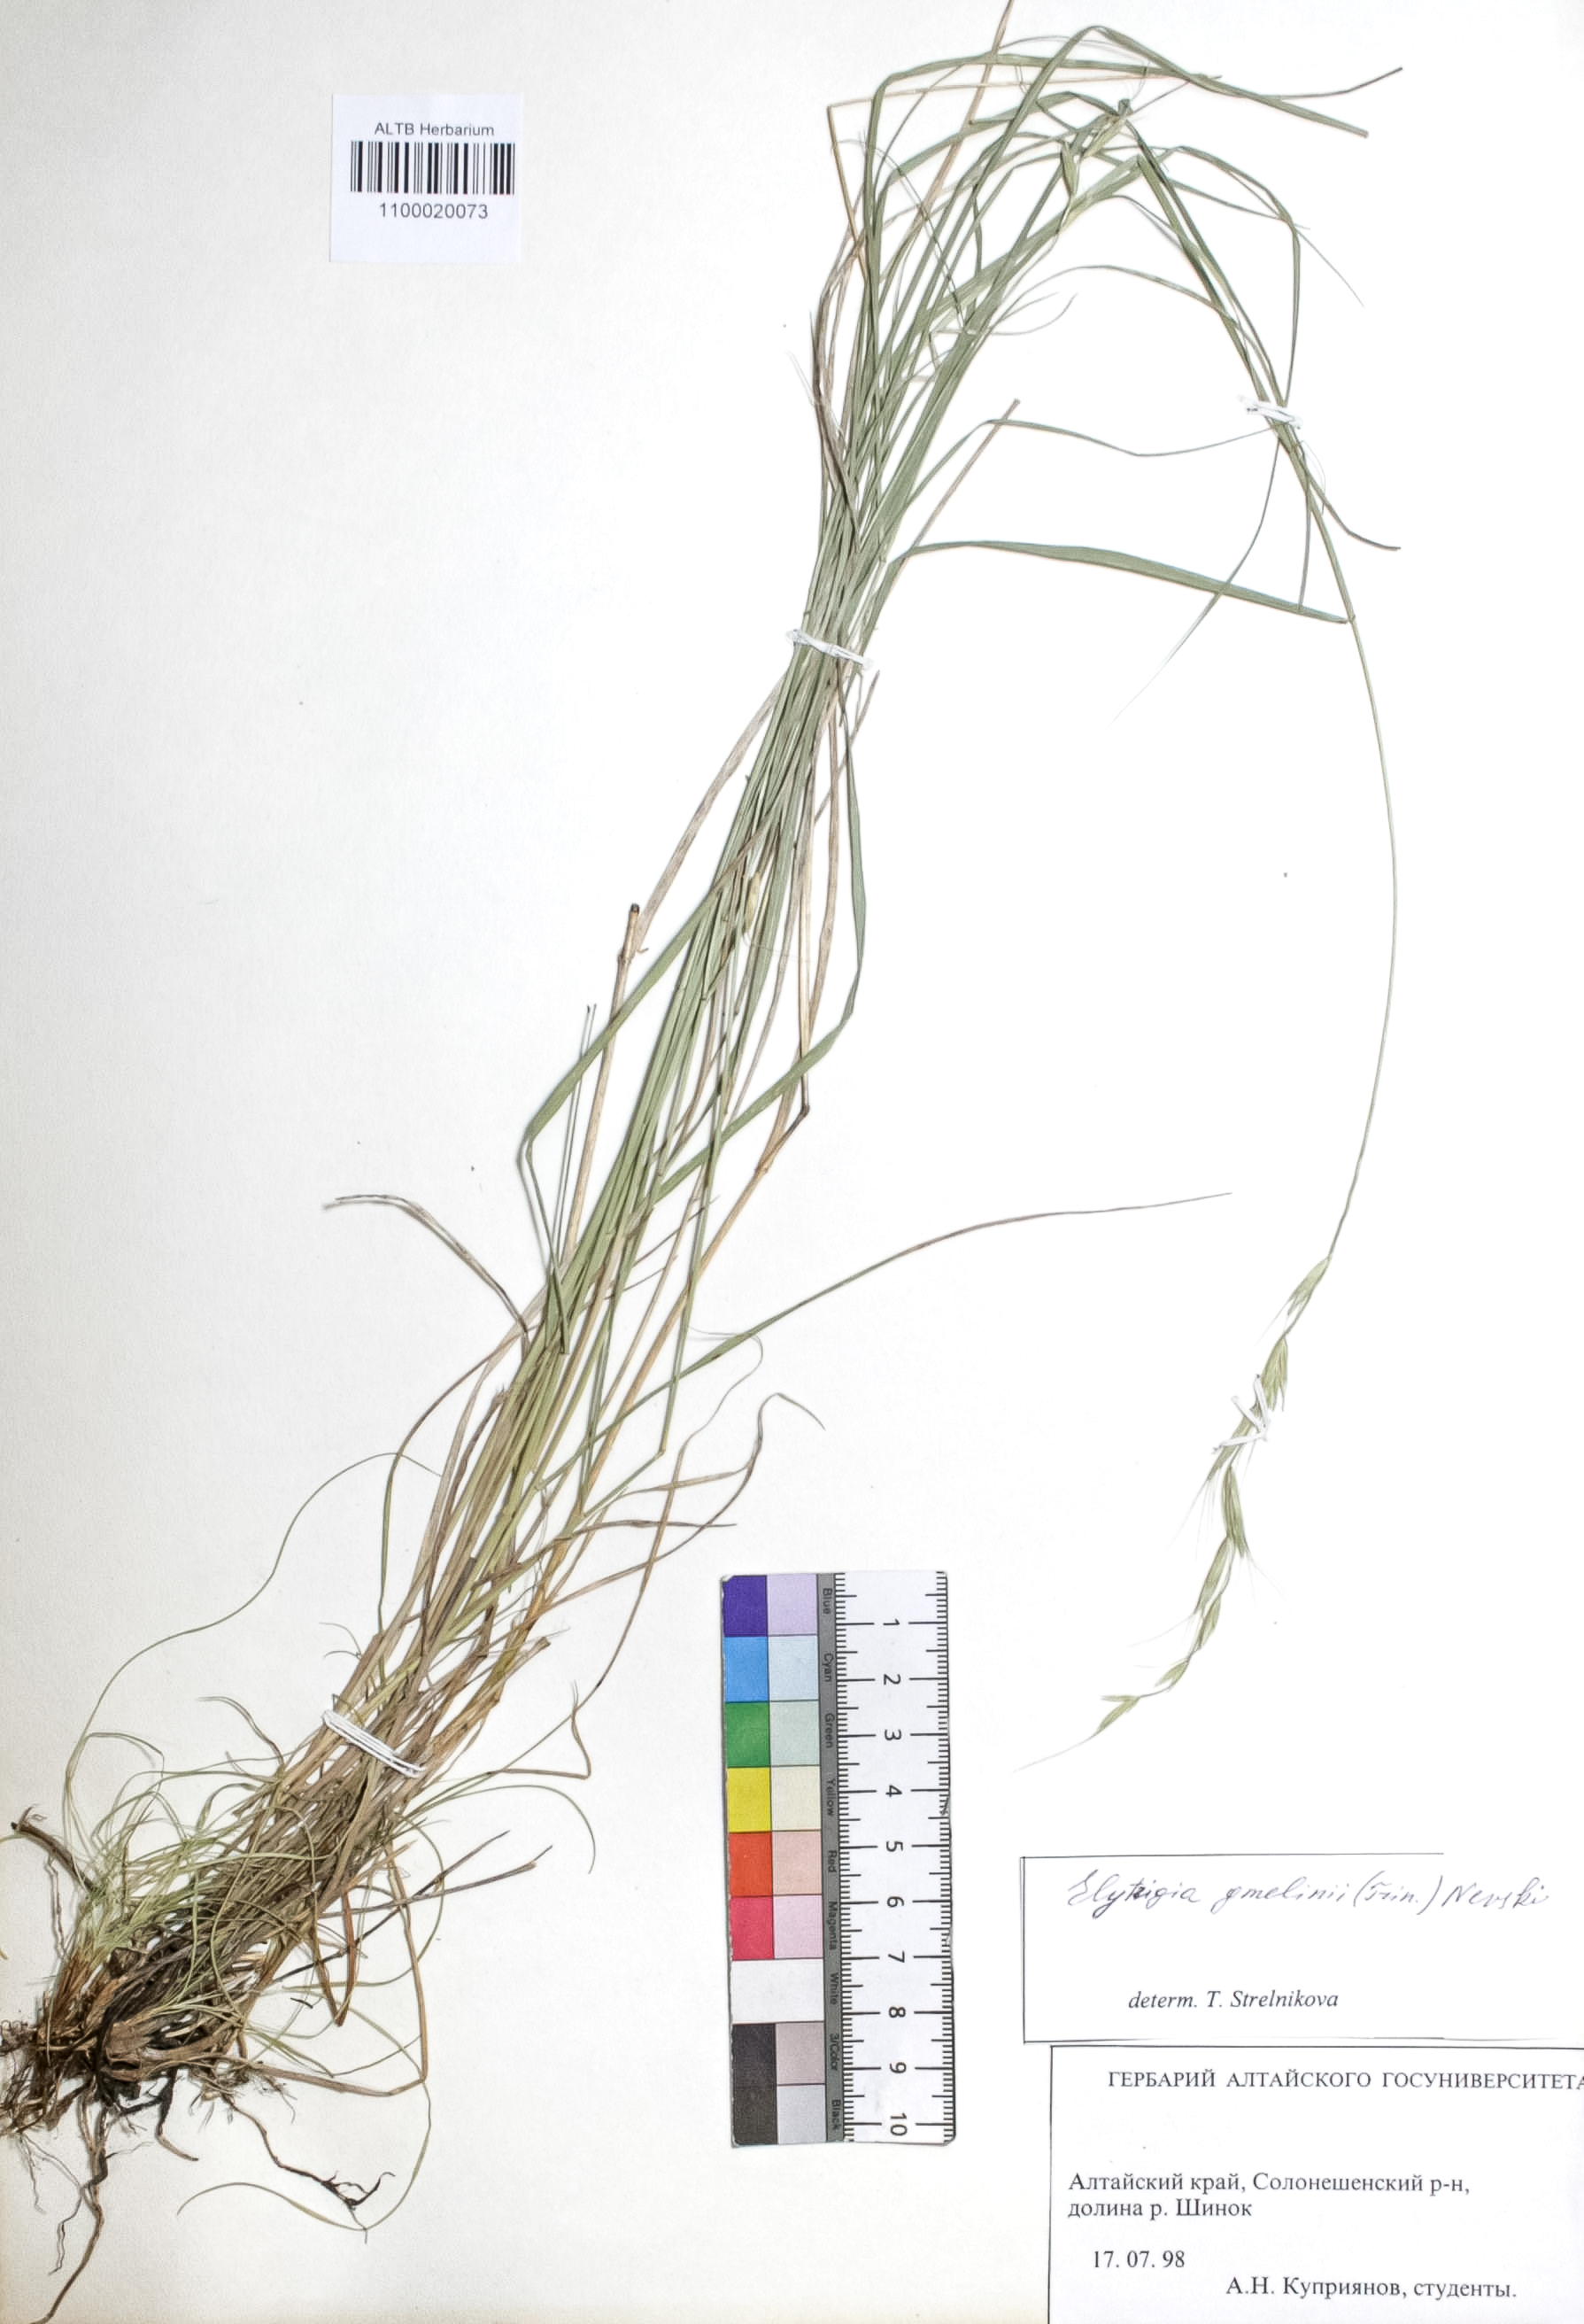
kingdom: Plantae
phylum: Tracheophyta
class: Liliopsida
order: Poales
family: Poaceae
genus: Pseudoroegneria
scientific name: Pseudoroegneria reflexiaristata
